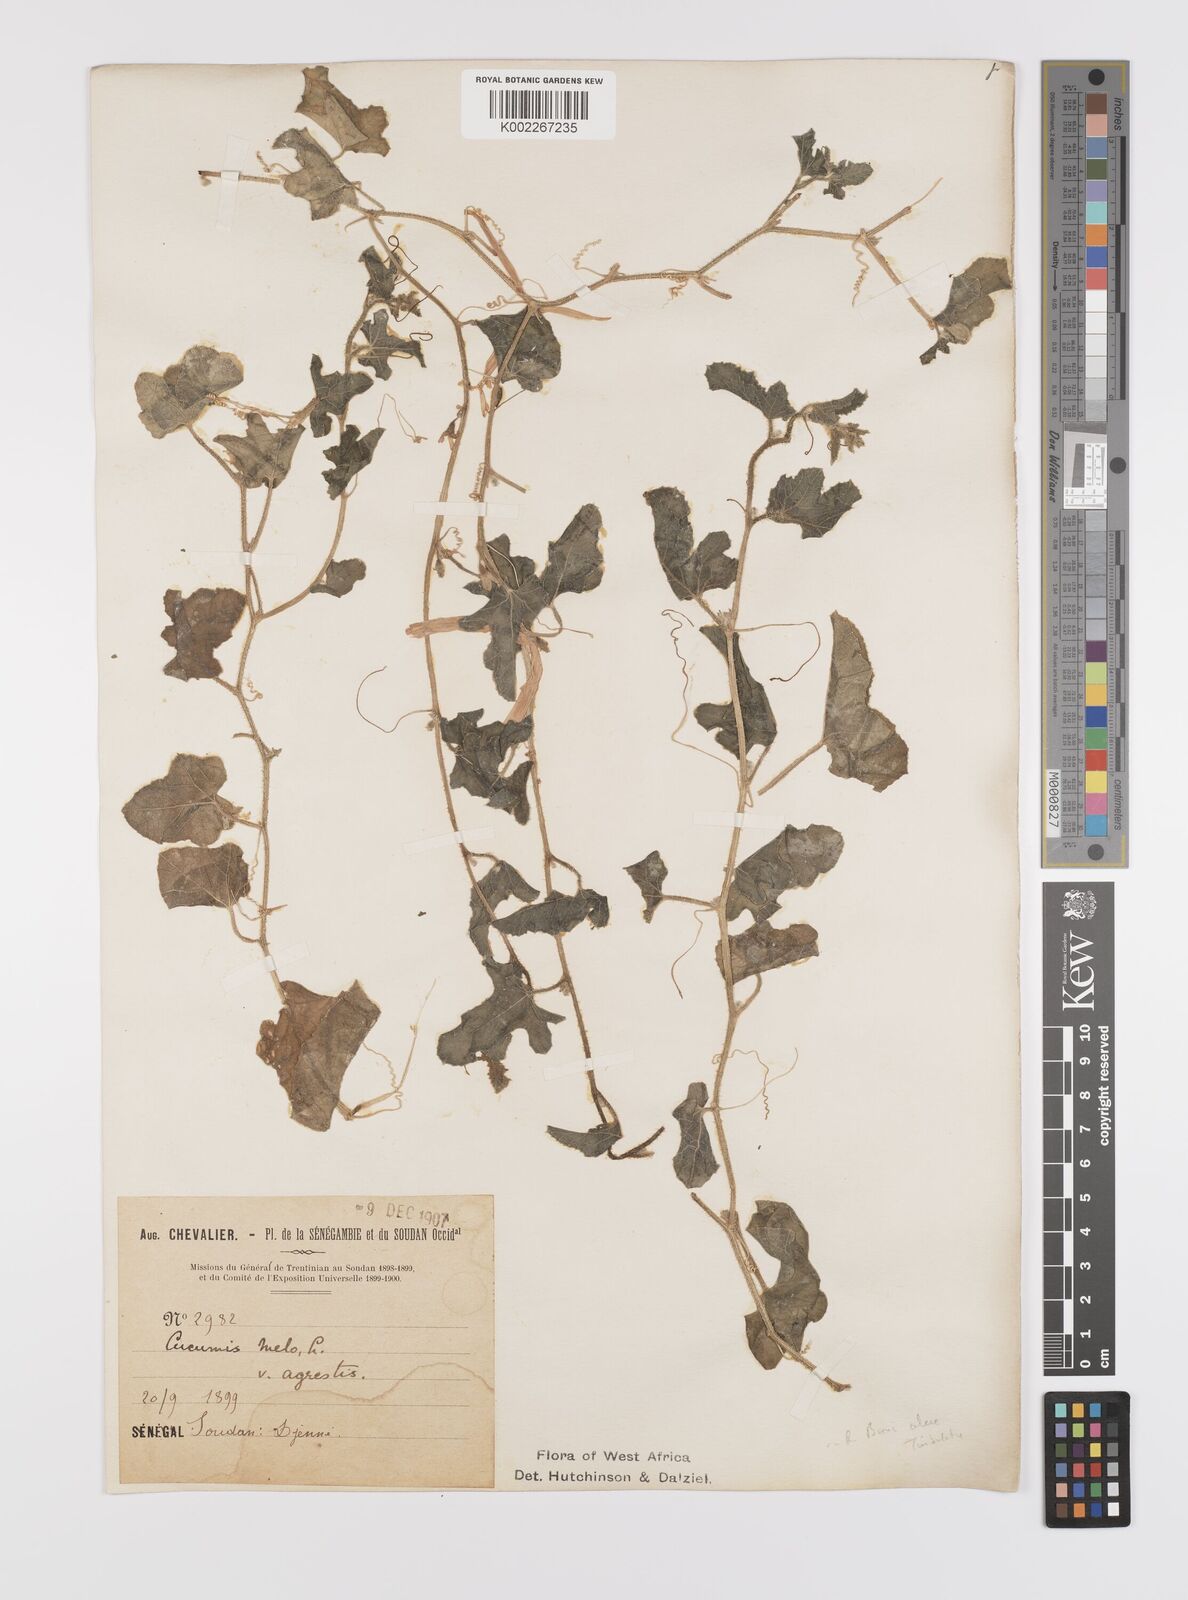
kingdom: Plantae
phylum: Tracheophyta
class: Magnoliopsida
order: Cucurbitales
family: Cucurbitaceae
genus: Cucumis
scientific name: Cucumis melo
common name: Melon
